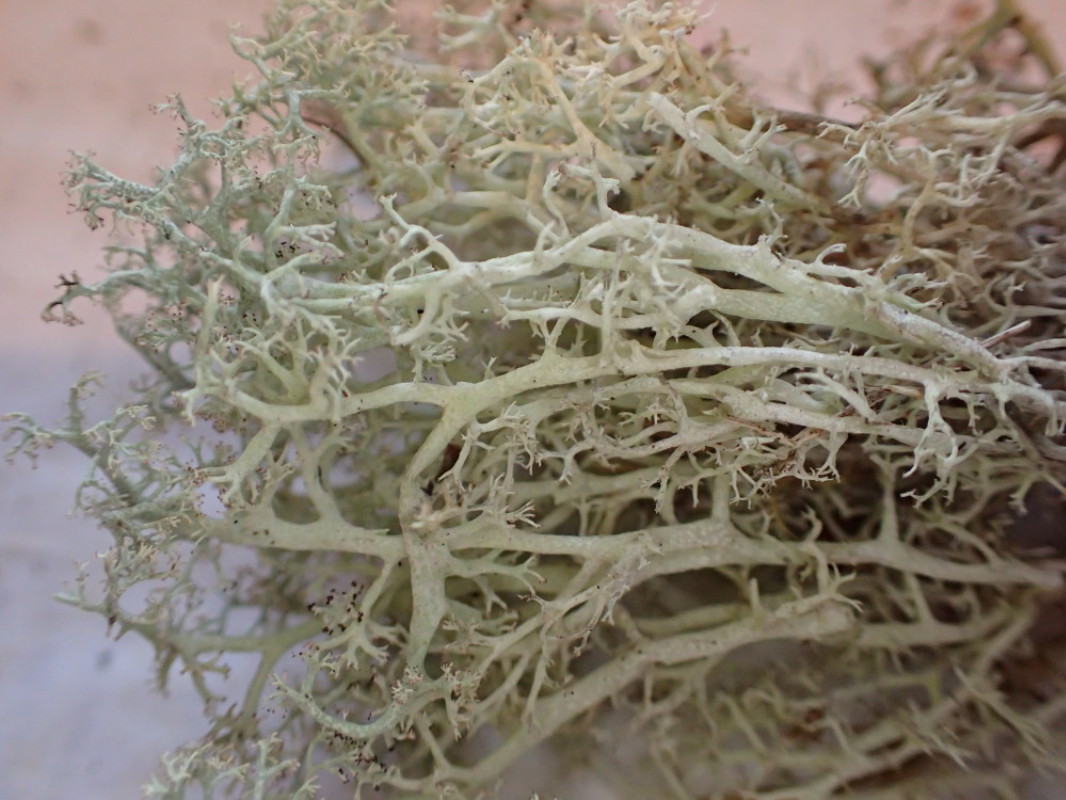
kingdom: Fungi
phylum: Ascomycota
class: Lecanoromycetes
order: Lecanorales
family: Cladoniaceae
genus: Cladonia
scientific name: Cladonia mitis
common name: mild rensdyrlav
